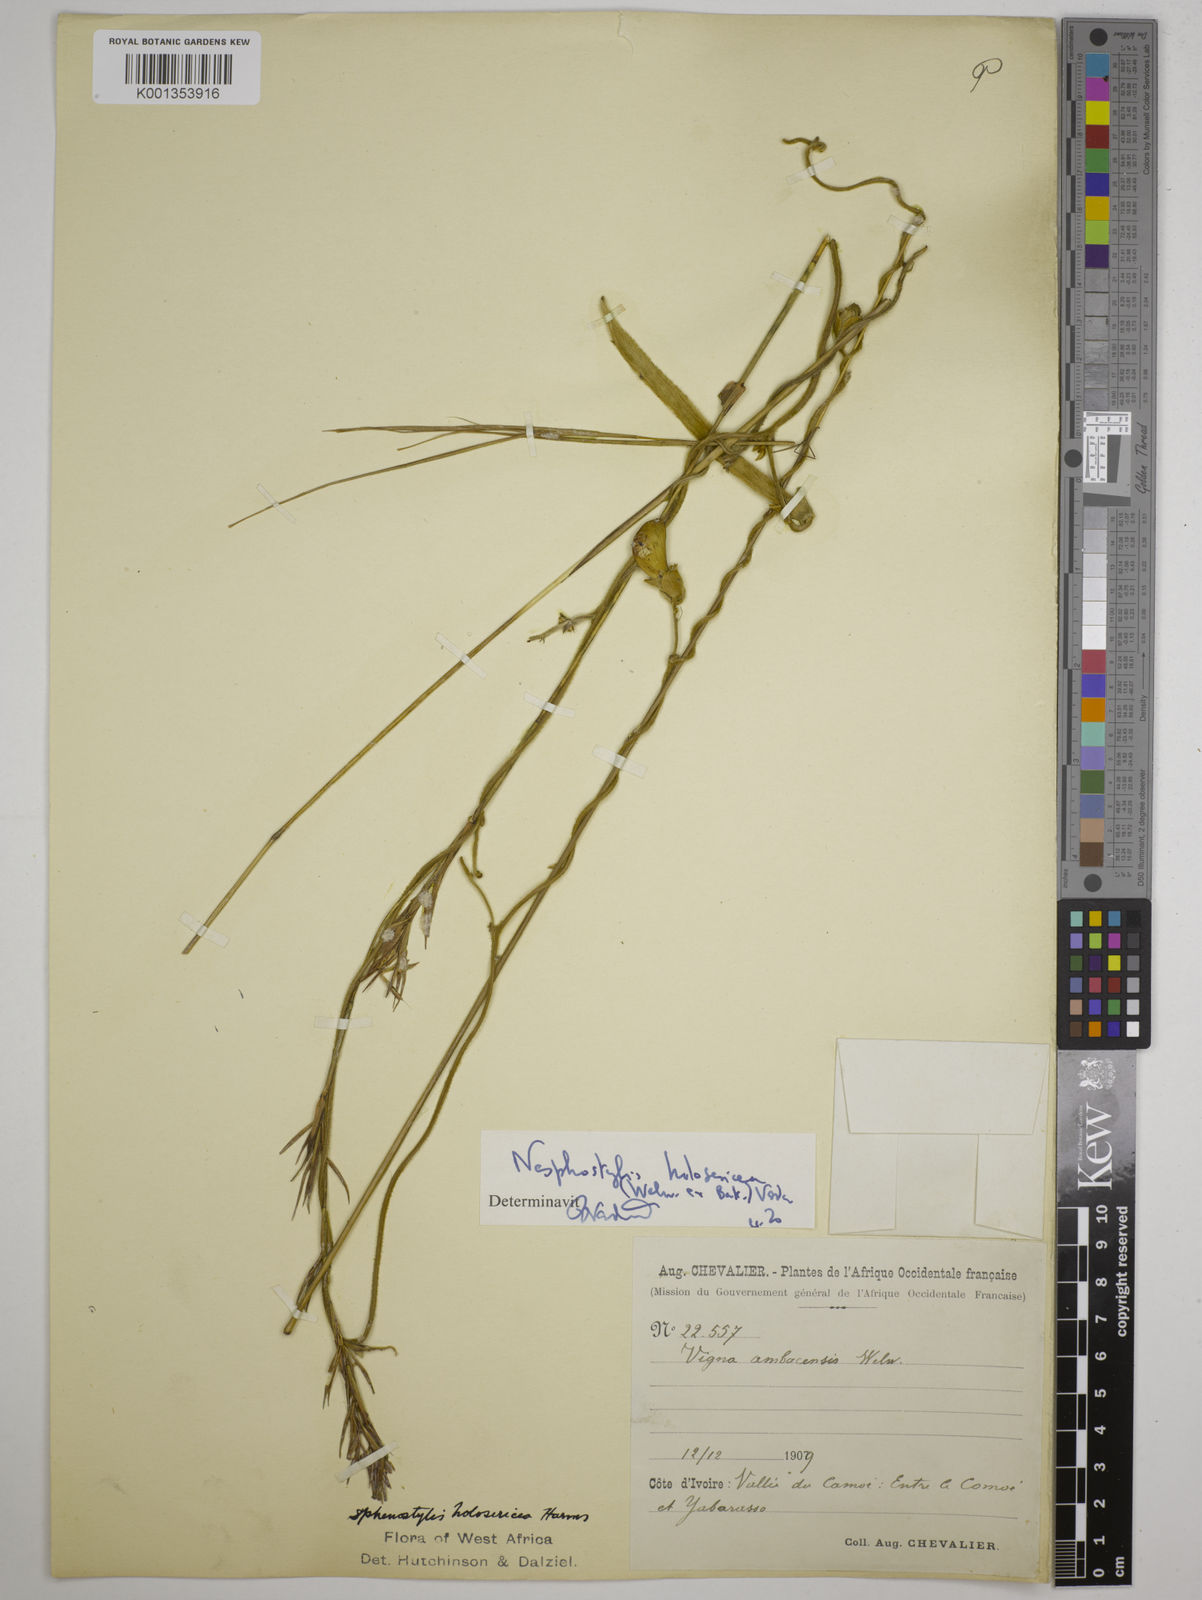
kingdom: Plantae
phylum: Tracheophyta
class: Magnoliopsida
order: Fabales
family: Fabaceae
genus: Nesphostylis
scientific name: Nesphostylis holosericea
